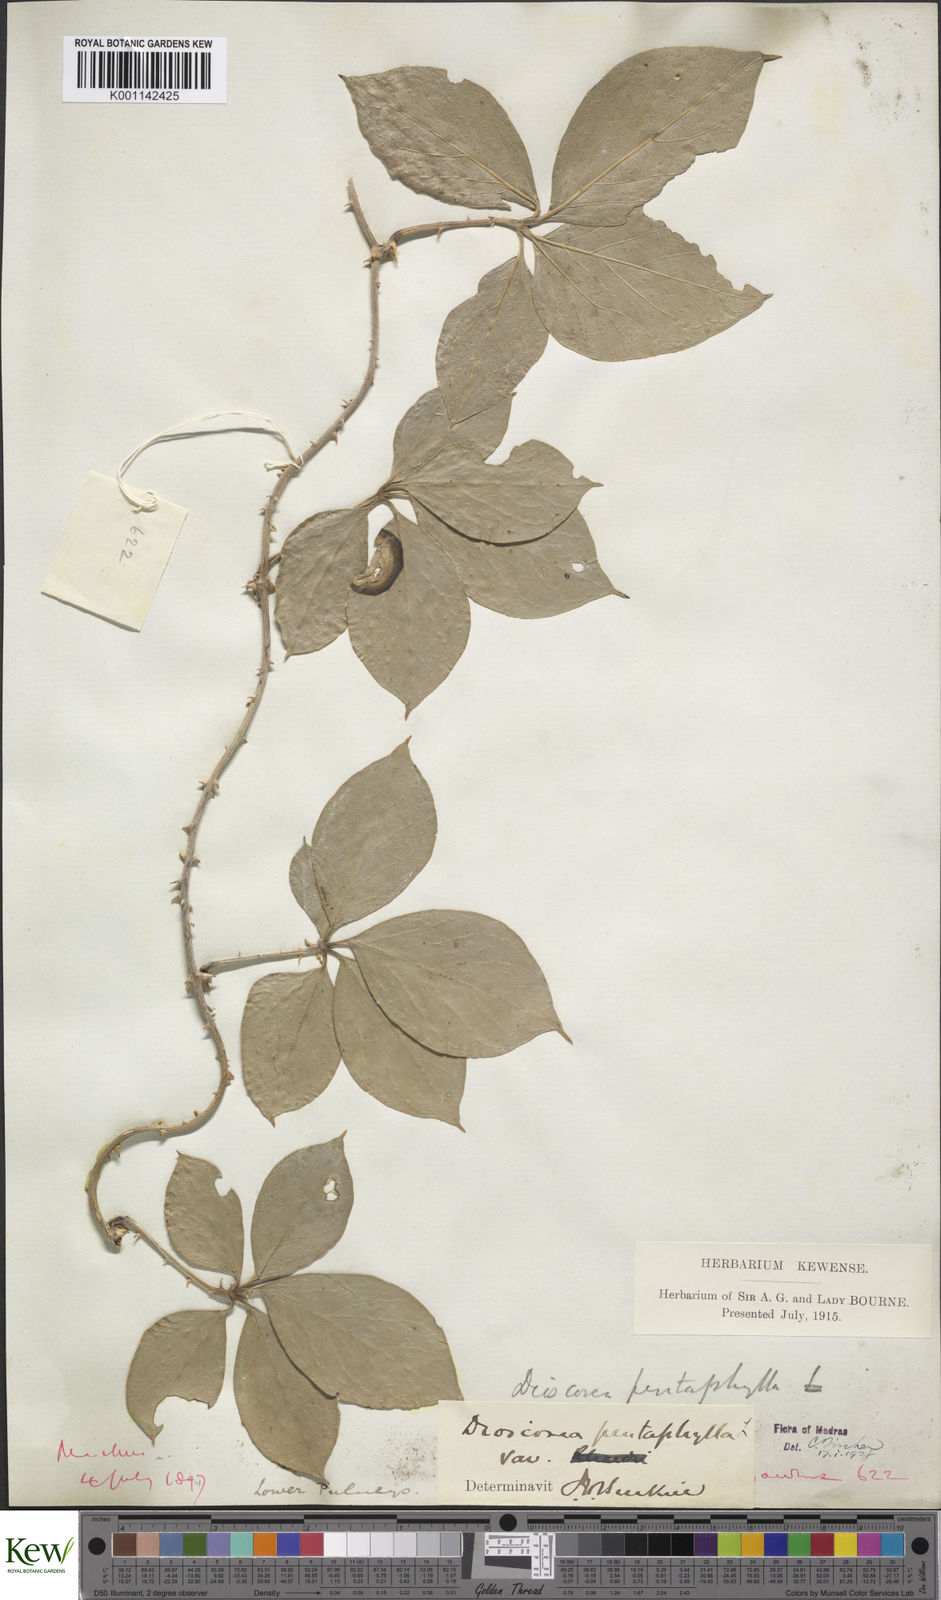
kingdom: Plantae
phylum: Tracheophyta
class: Liliopsida
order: Dioscoreales
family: Dioscoreaceae
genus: Dioscorea
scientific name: Dioscorea pentaphylla
